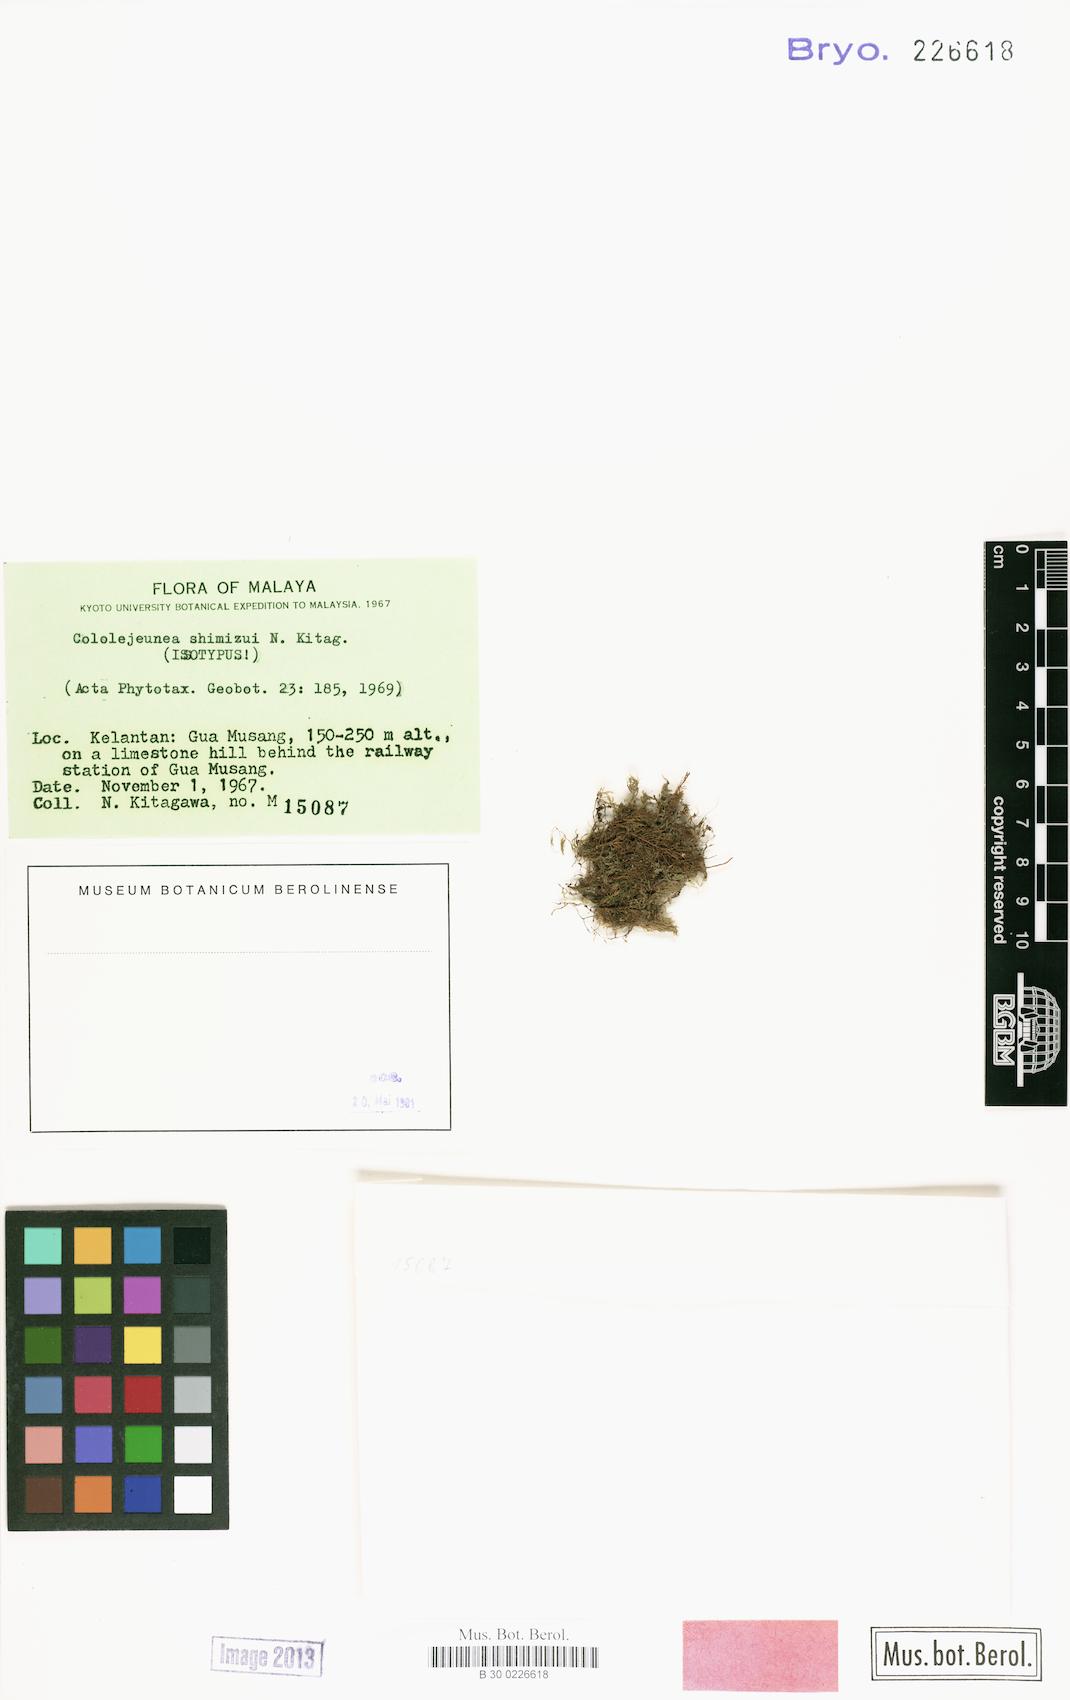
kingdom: Plantae
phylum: Marchantiophyta
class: Jungermanniopsida
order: Porellales
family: Lejeuneaceae
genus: Cololejeunea
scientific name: Cololejeunea shimizui
